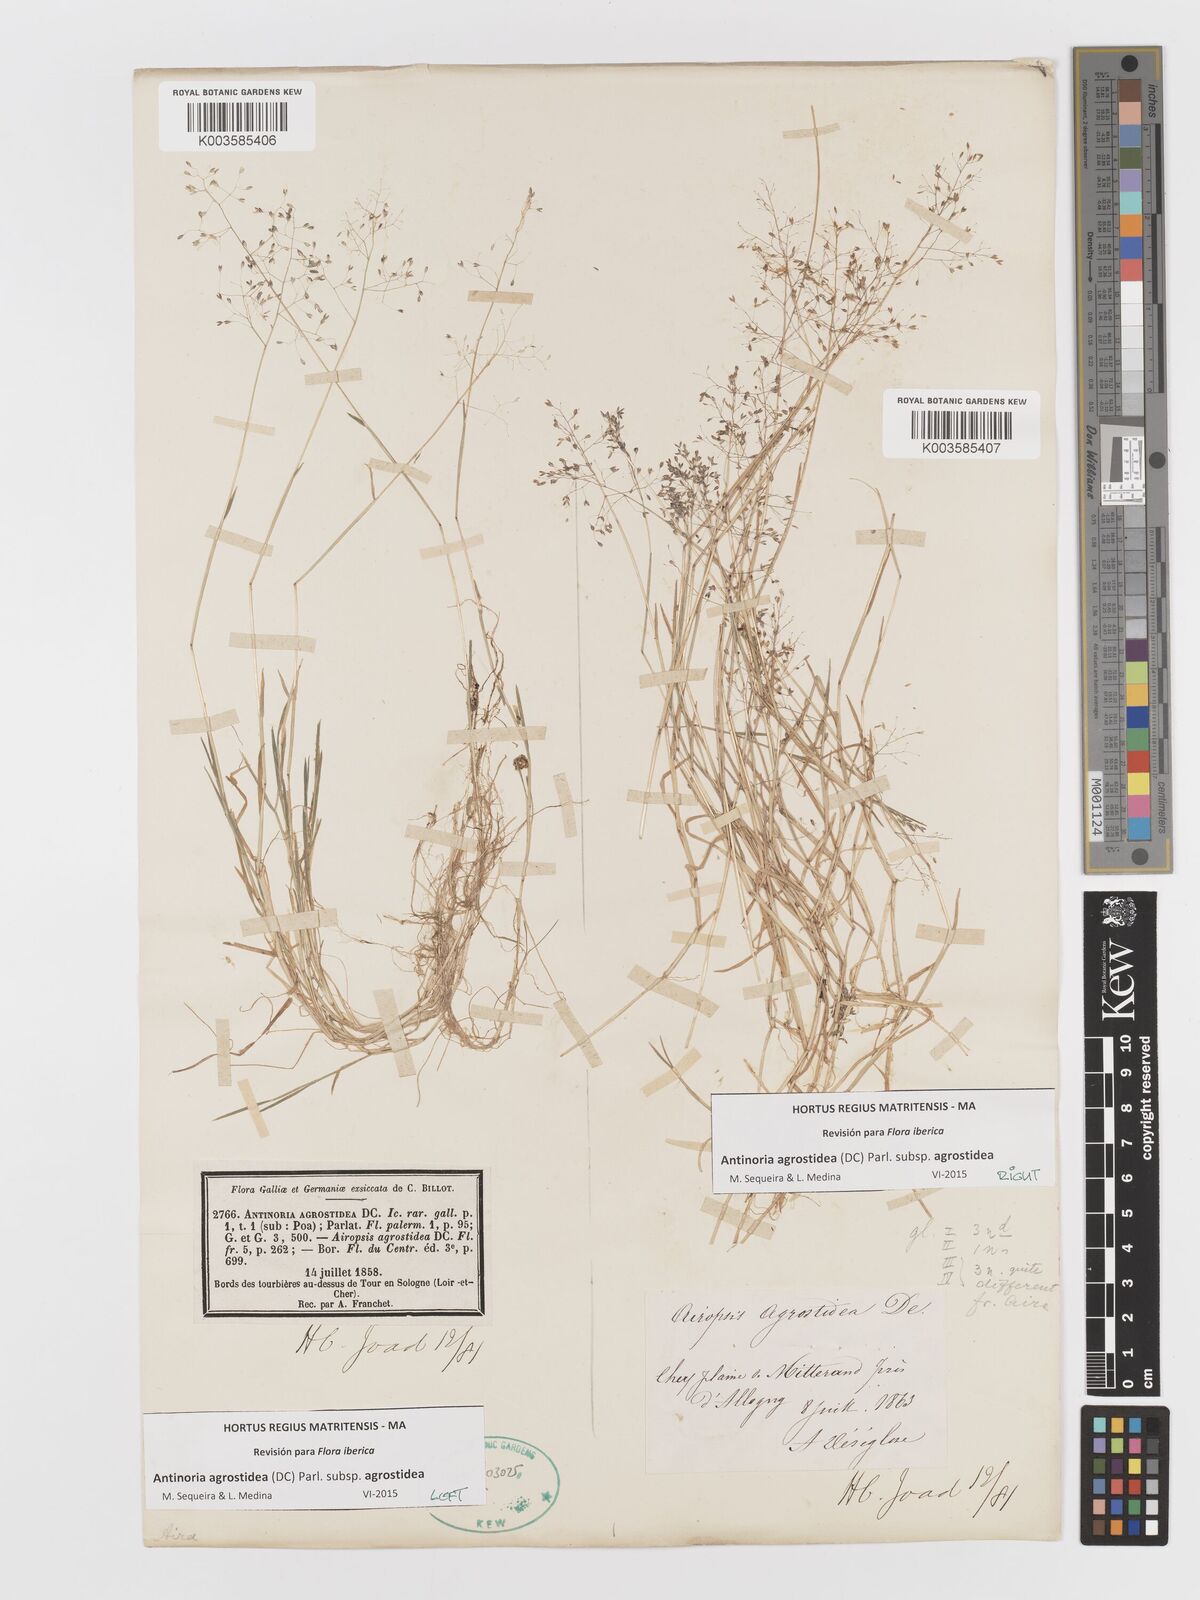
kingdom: Plantae
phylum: Tracheophyta
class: Liliopsida
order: Poales
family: Poaceae
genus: Antinoria
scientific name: Antinoria agrostidea
